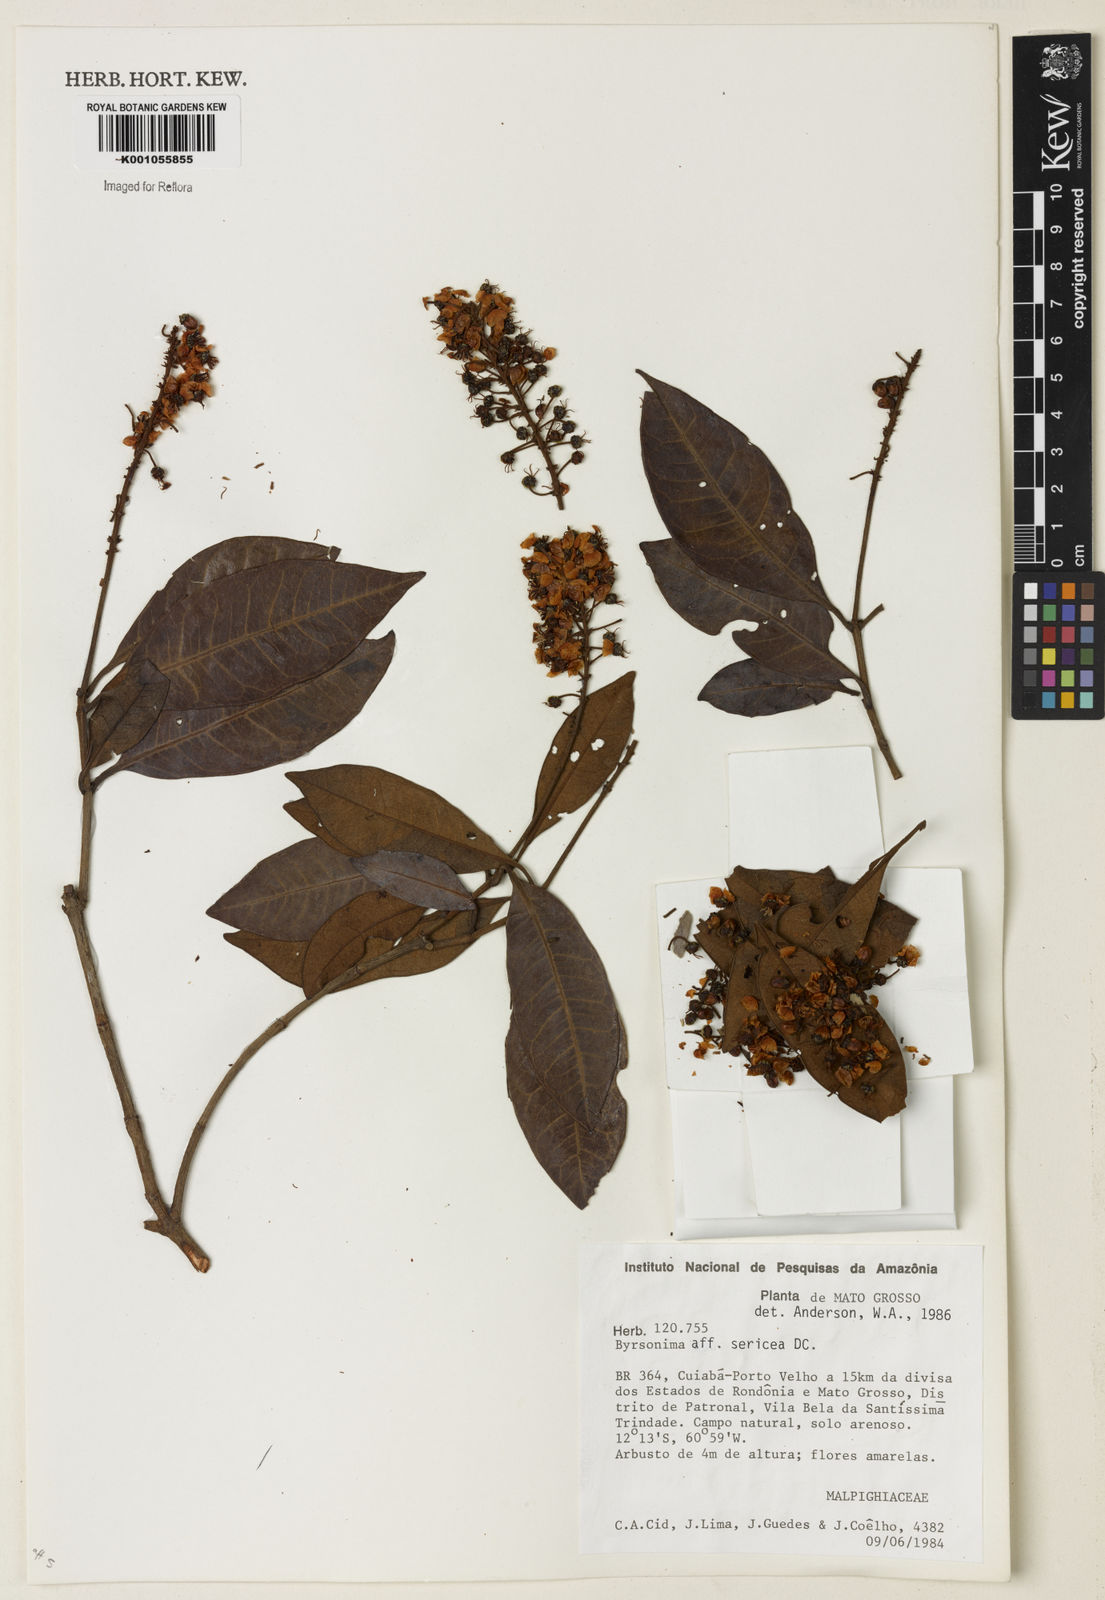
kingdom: Plantae
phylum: Tracheophyta
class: Magnoliopsida
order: Malpighiales
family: Malpighiaceae
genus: Byrsonima
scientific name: Byrsonima sericea
